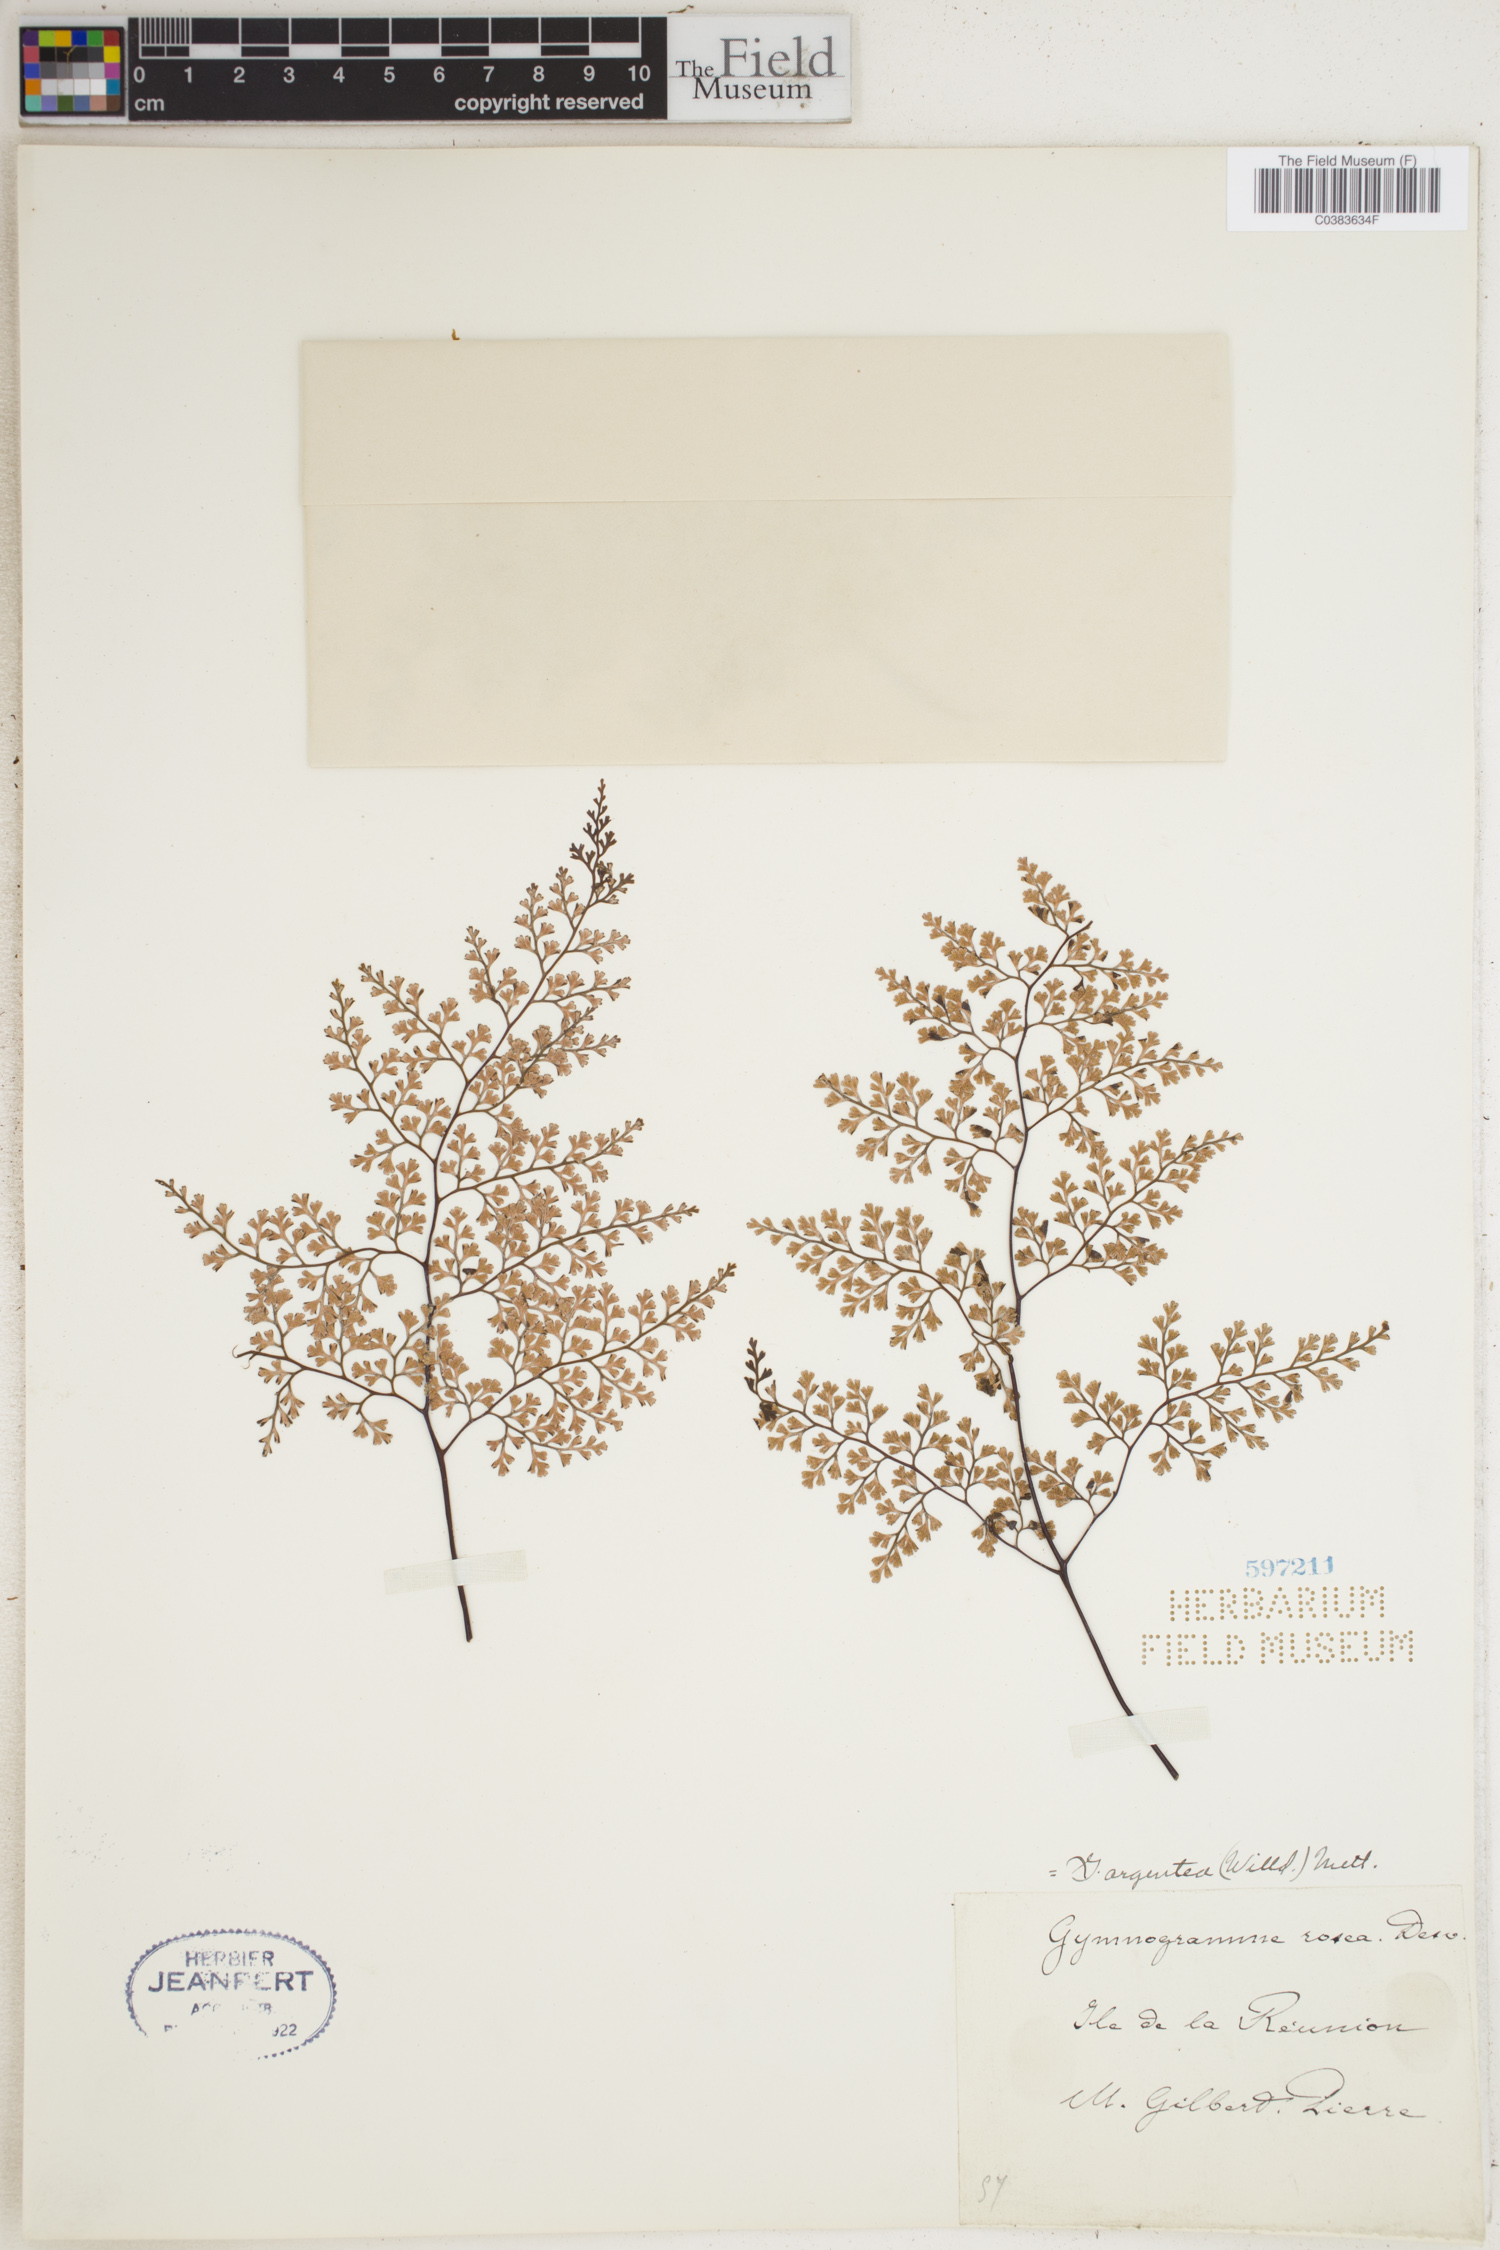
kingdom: Plantae
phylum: Tracheophyta
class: Polypodiopsida
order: Polypodiales
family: Pteridaceae
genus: Cerosora
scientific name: Cerosora argentea
